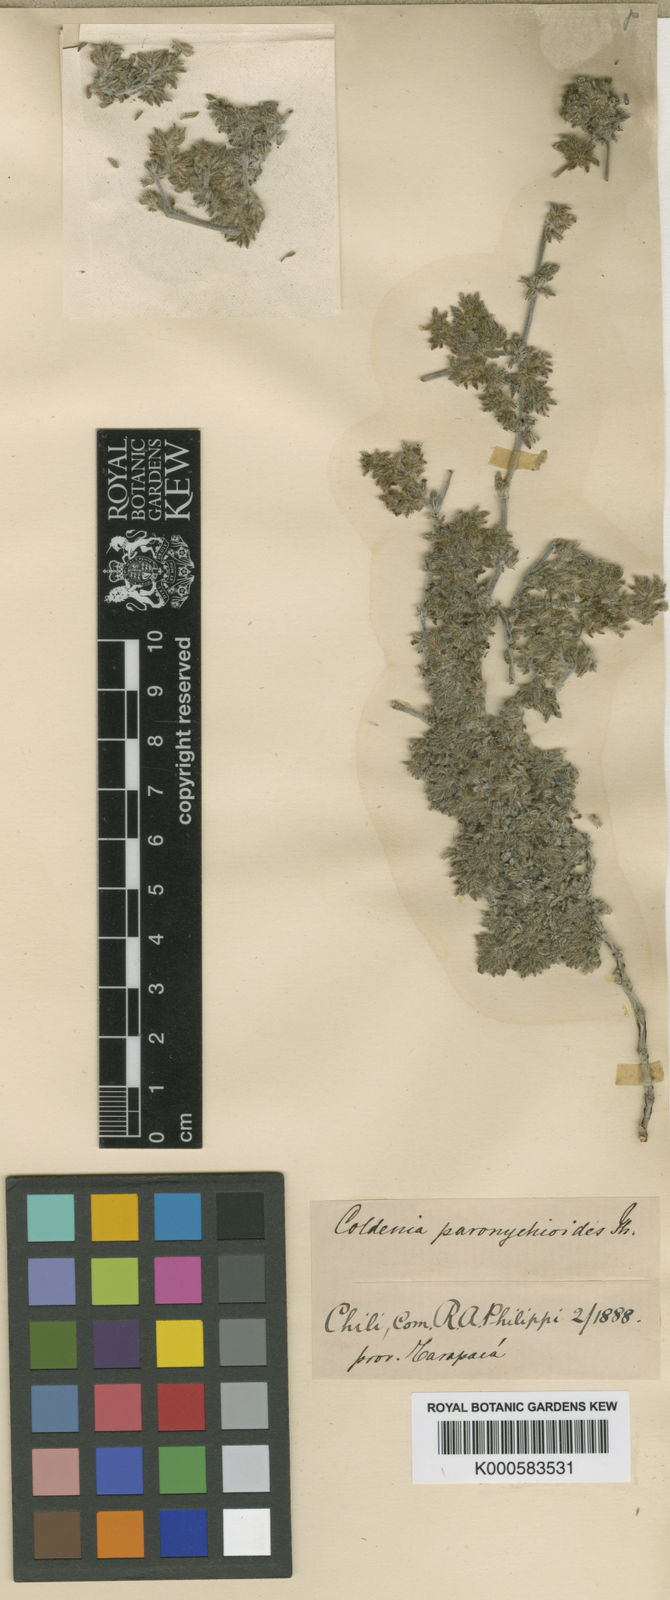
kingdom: Plantae
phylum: Tracheophyta
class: Magnoliopsida
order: Boraginales
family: Ehretiaceae
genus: Tiquilia
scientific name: Tiquilia paronychioides
